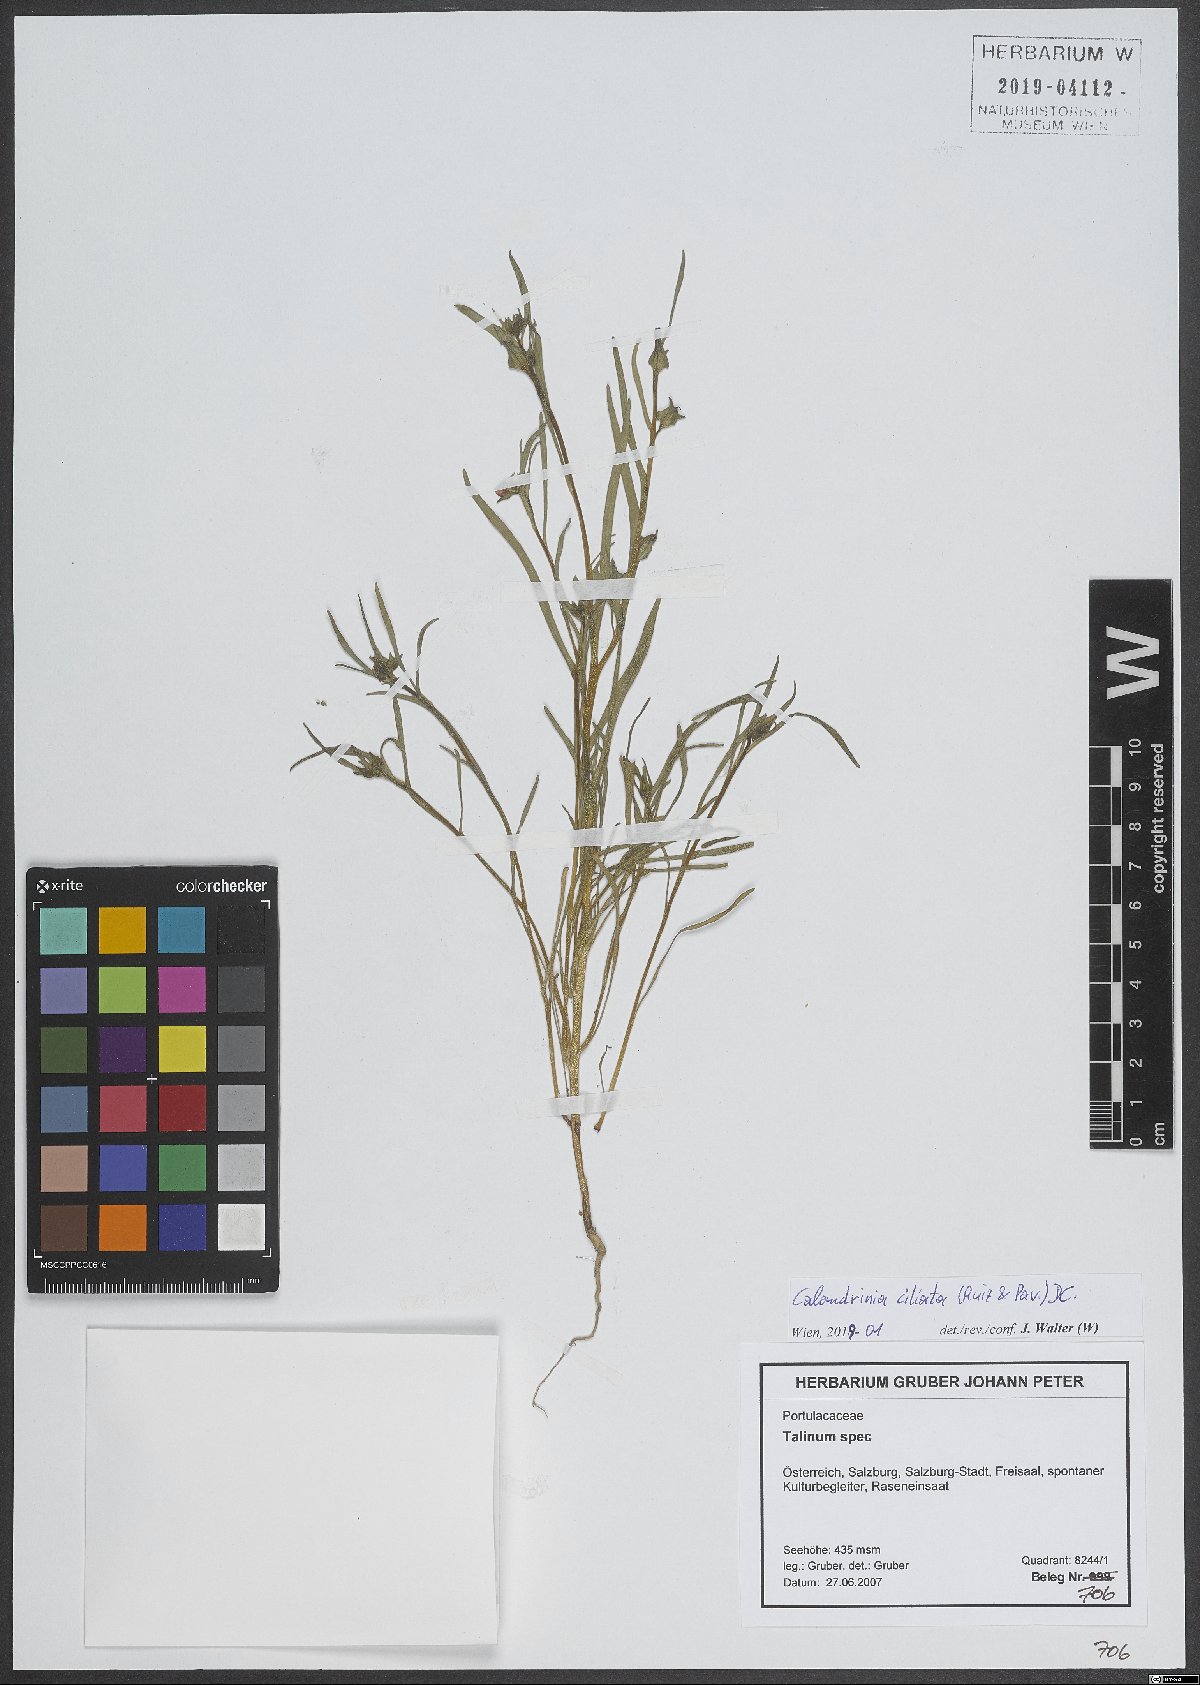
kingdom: Plantae
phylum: Tracheophyta
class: Magnoliopsida
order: Caryophyllales
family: Montiaceae
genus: Calandrinia
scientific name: Calandrinia ciliata
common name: Red-maids
